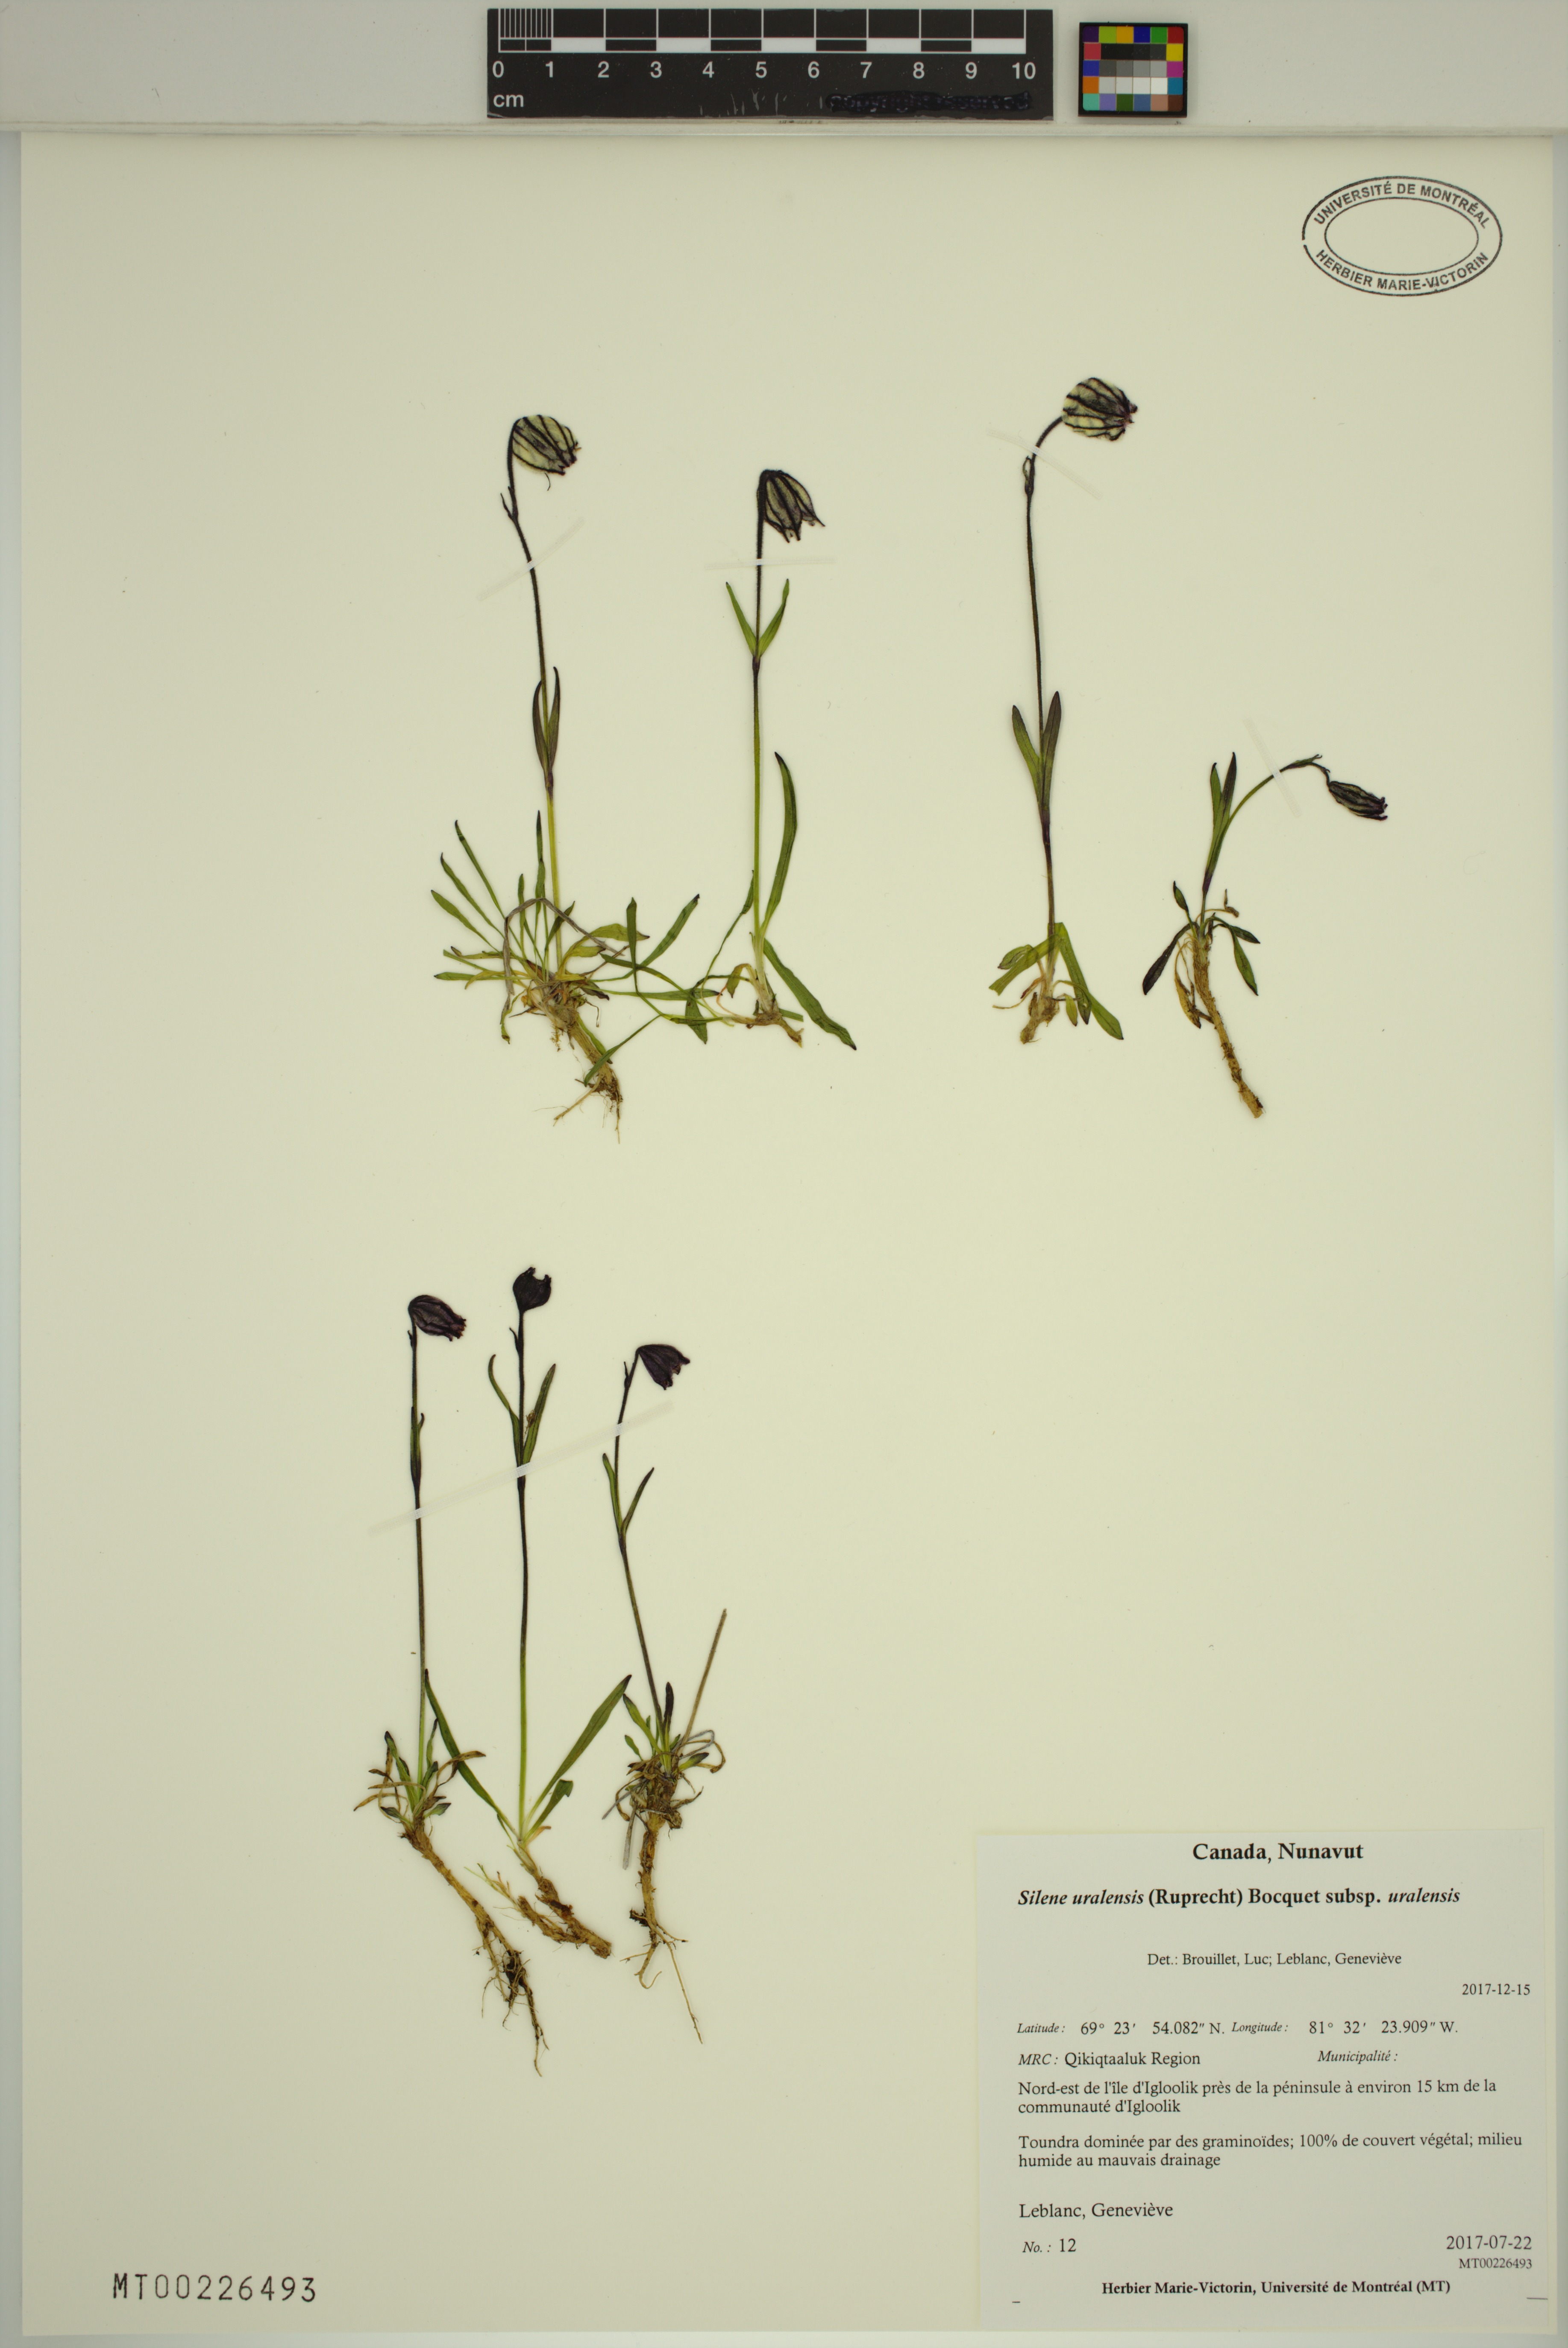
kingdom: Plantae
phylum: Tracheophyta
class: Magnoliopsida
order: Caryophyllales
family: Caryophyllaceae
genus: Silene
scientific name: Silene uralensis
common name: Nodding campion
